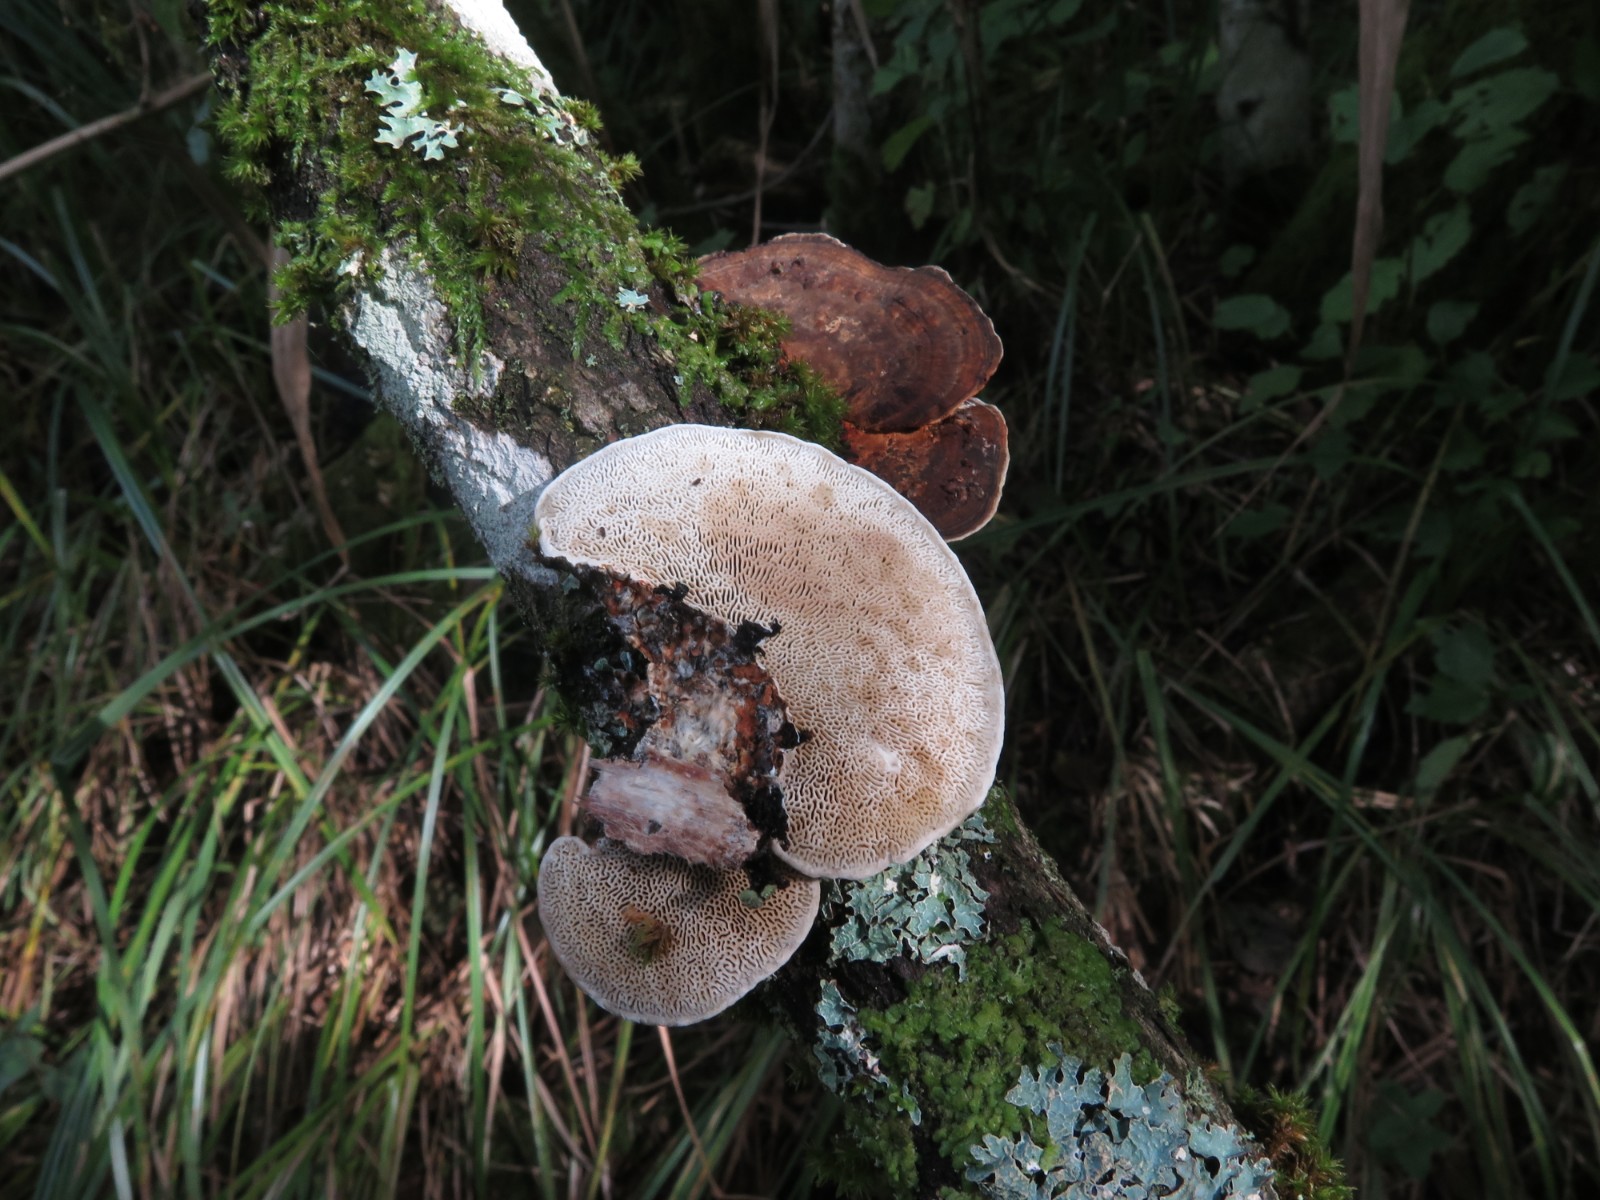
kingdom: Fungi
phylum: Basidiomycota
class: Agaricomycetes
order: Polyporales
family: Polyporaceae
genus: Daedaleopsis
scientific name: Daedaleopsis confragosa
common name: rødmende læderporesvamp
